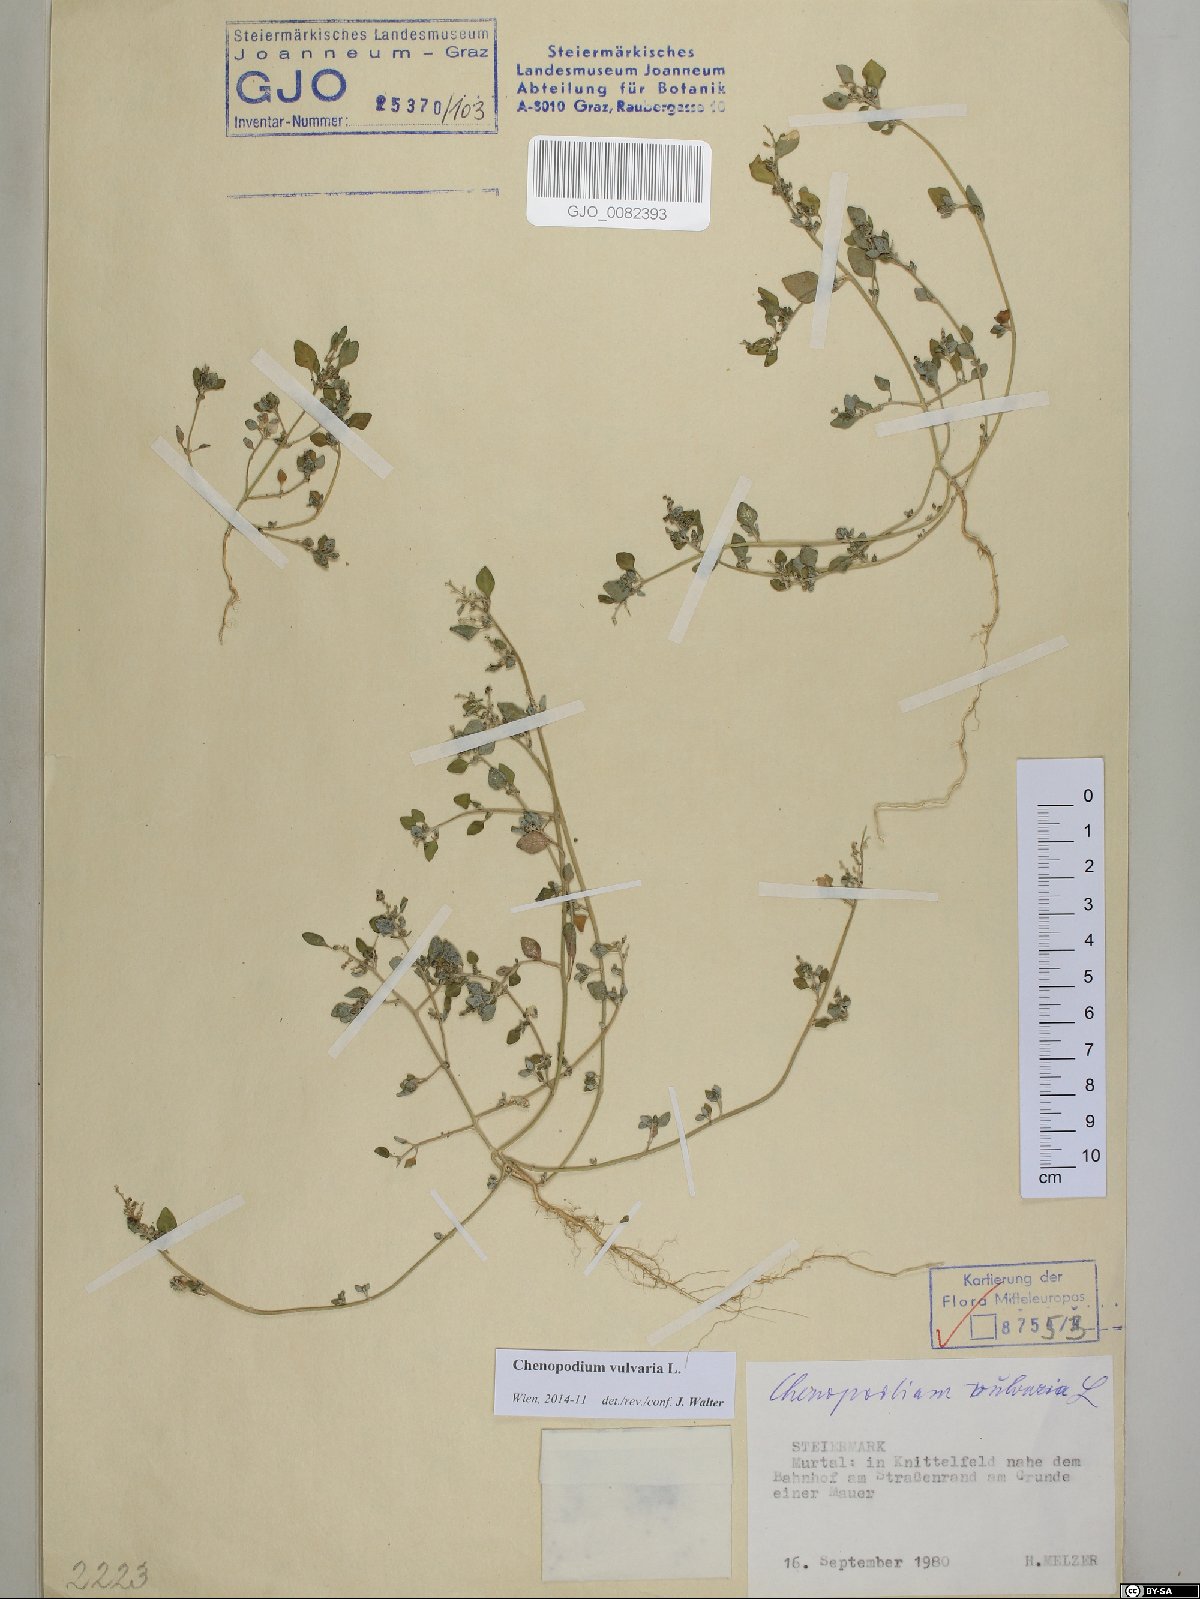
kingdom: Plantae
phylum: Tracheophyta
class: Magnoliopsida
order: Caryophyllales
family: Amaranthaceae
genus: Chenopodium
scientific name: Chenopodium vulvaria
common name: Stinking goosefoot
